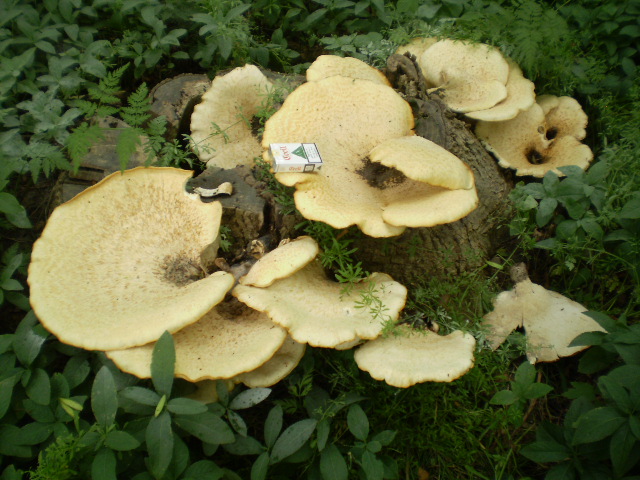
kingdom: Fungi
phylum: Basidiomycota
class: Agaricomycetes
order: Polyporales
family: Polyporaceae
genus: Cerioporus
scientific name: Cerioporus squamosus
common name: skællet stilkporesvamp
